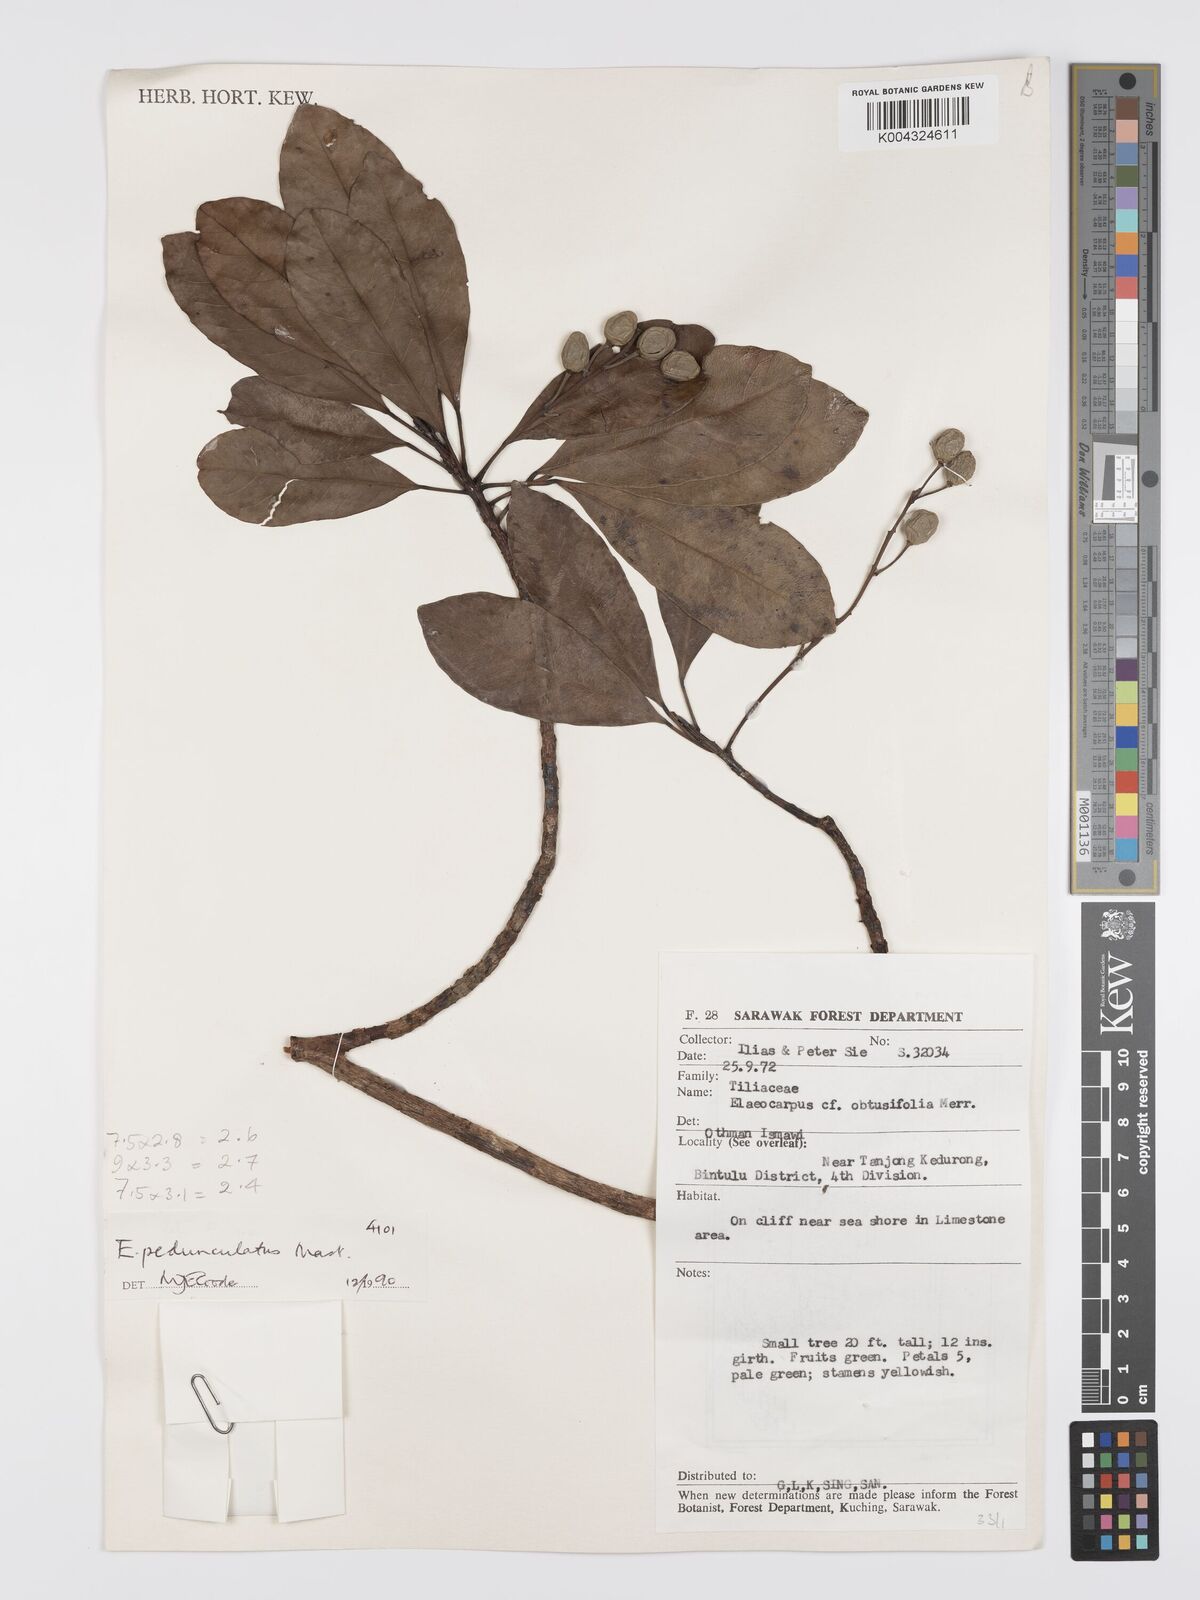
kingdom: Plantae
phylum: Tracheophyta
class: Magnoliopsida
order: Oxalidales
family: Elaeocarpaceae
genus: Elaeocarpus
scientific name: Elaeocarpus pedunculatus
